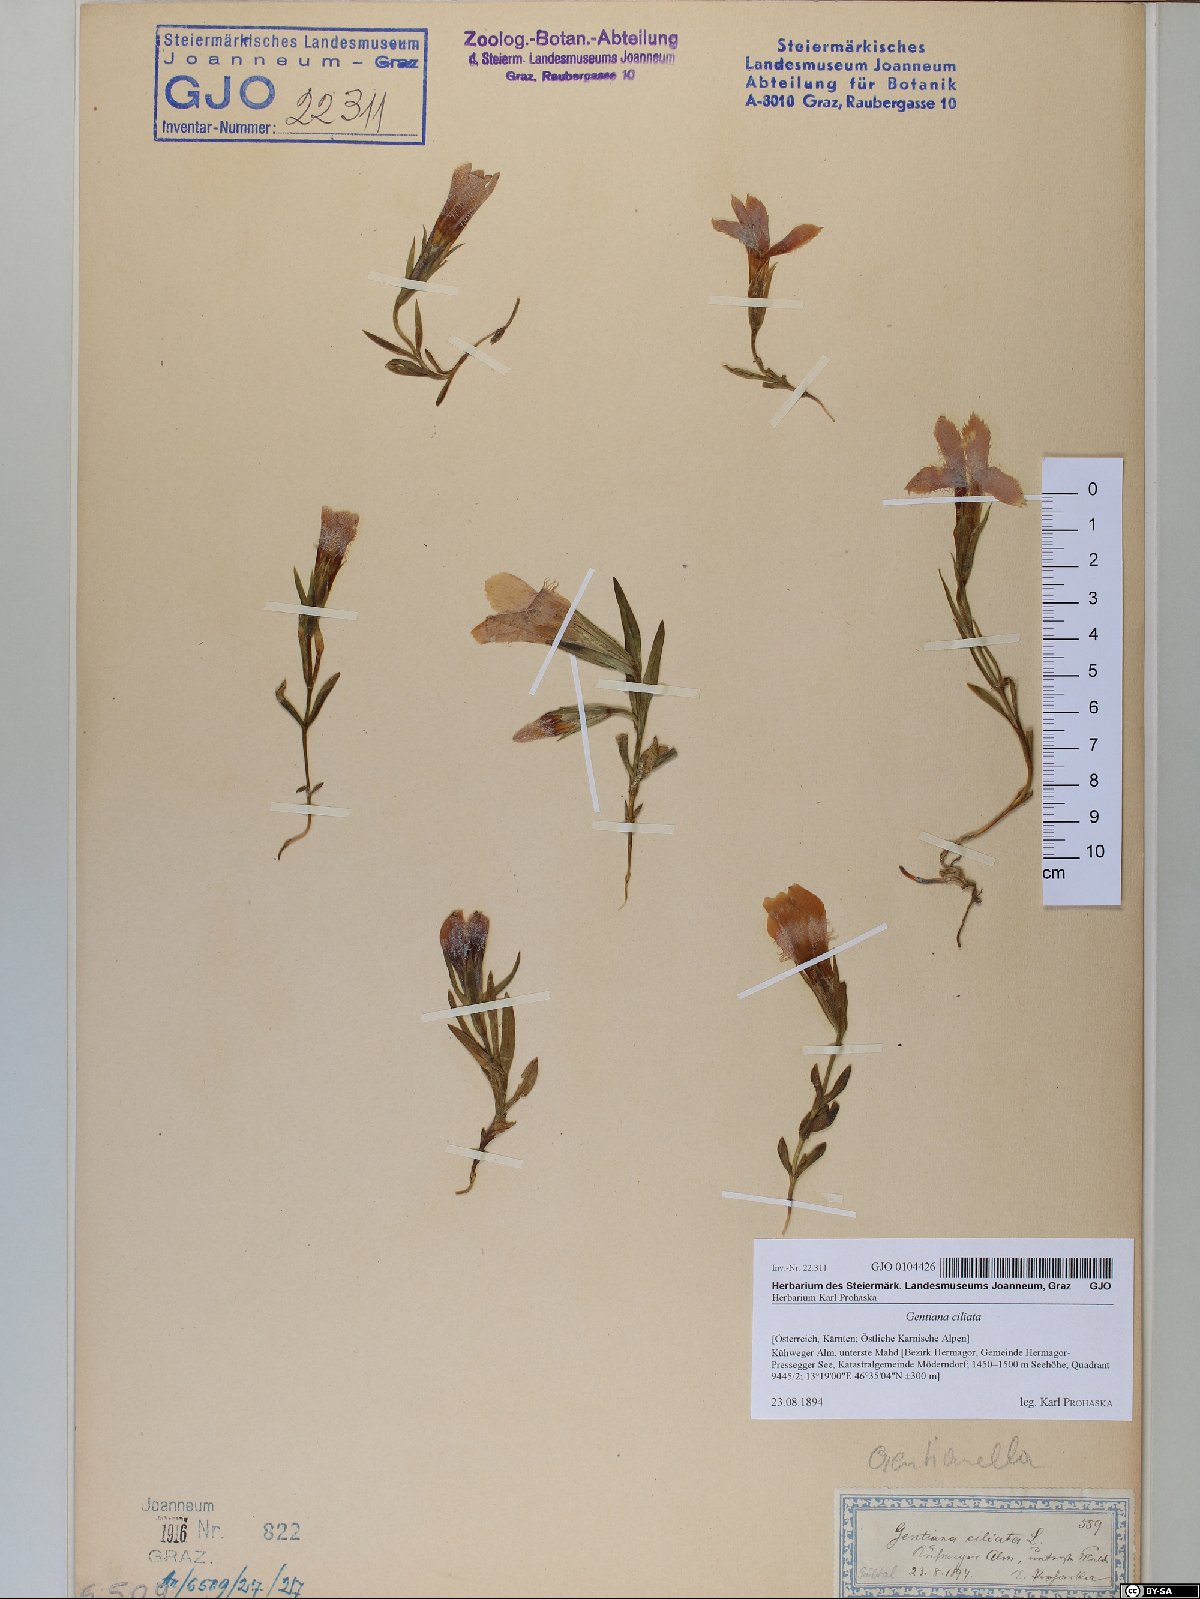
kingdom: Plantae
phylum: Tracheophyta
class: Magnoliopsida
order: Gentianales
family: Gentianaceae
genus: Gentianopsis
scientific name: Gentianopsis ciliata
